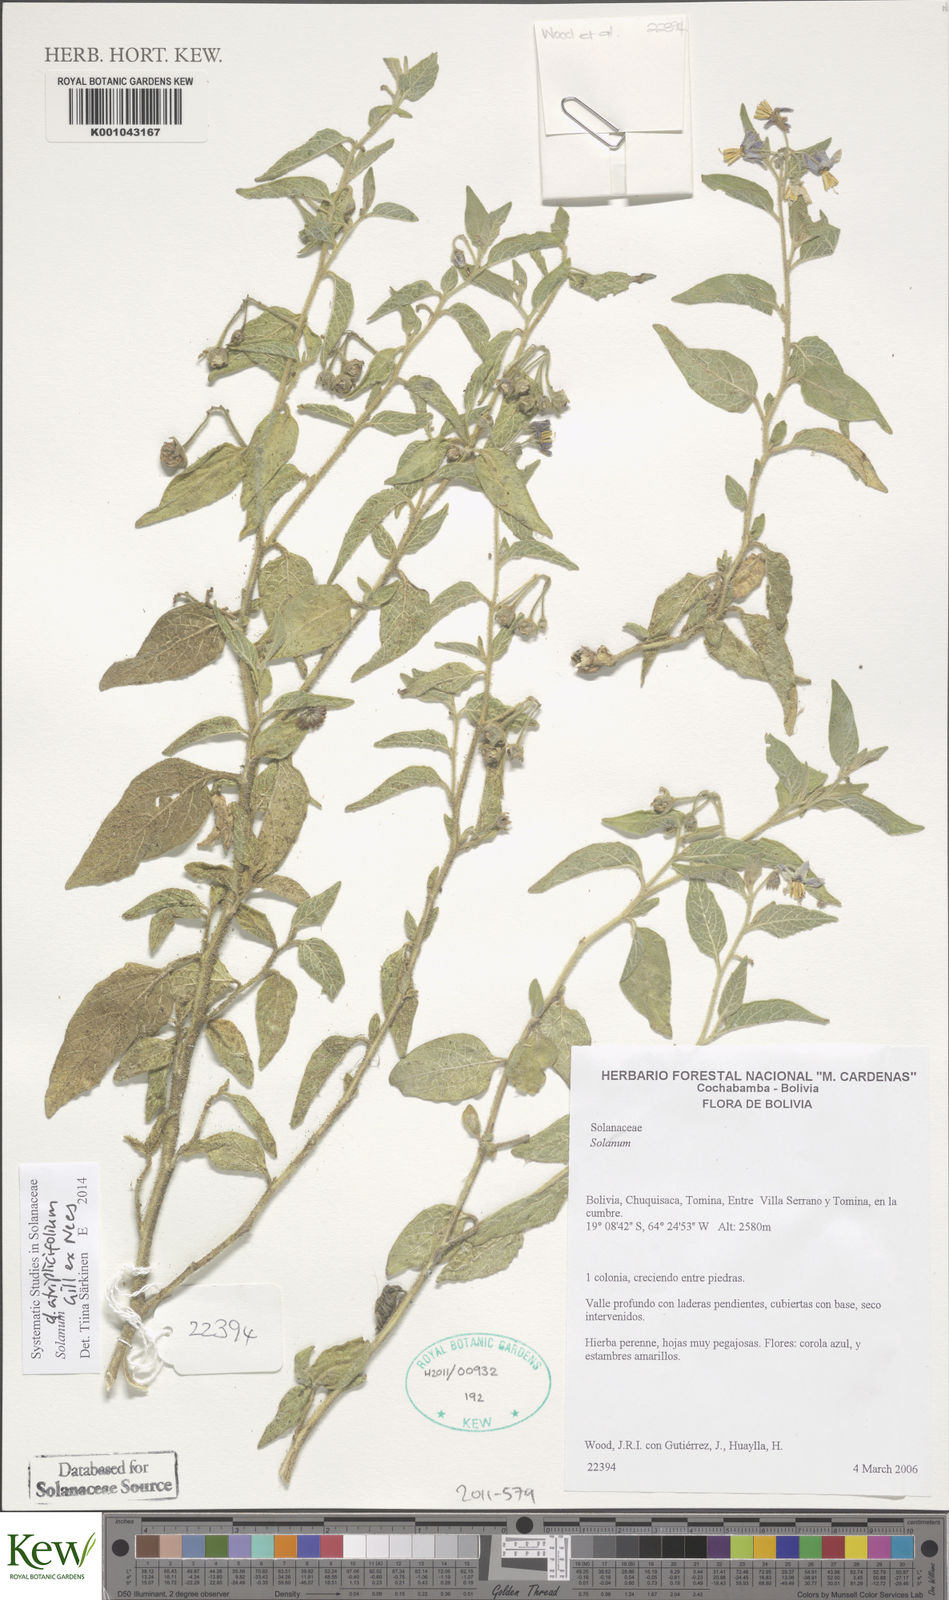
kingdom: Plantae
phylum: Tracheophyta
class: Magnoliopsida
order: Solanales
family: Solanaceae
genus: Solanum
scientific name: Solanum tweedianum
